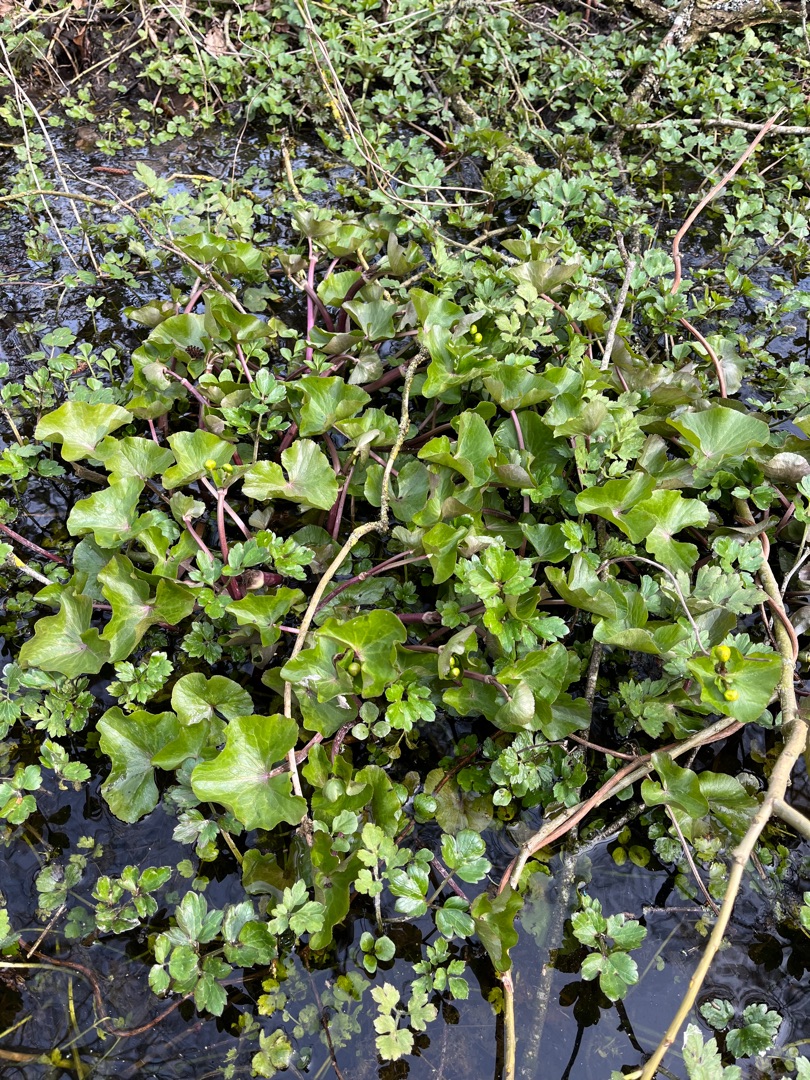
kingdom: Plantae
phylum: Tracheophyta
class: Magnoliopsida
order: Ranunculales
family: Ranunculaceae
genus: Caltha
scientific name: Caltha palustris
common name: Eng-kabbeleje
